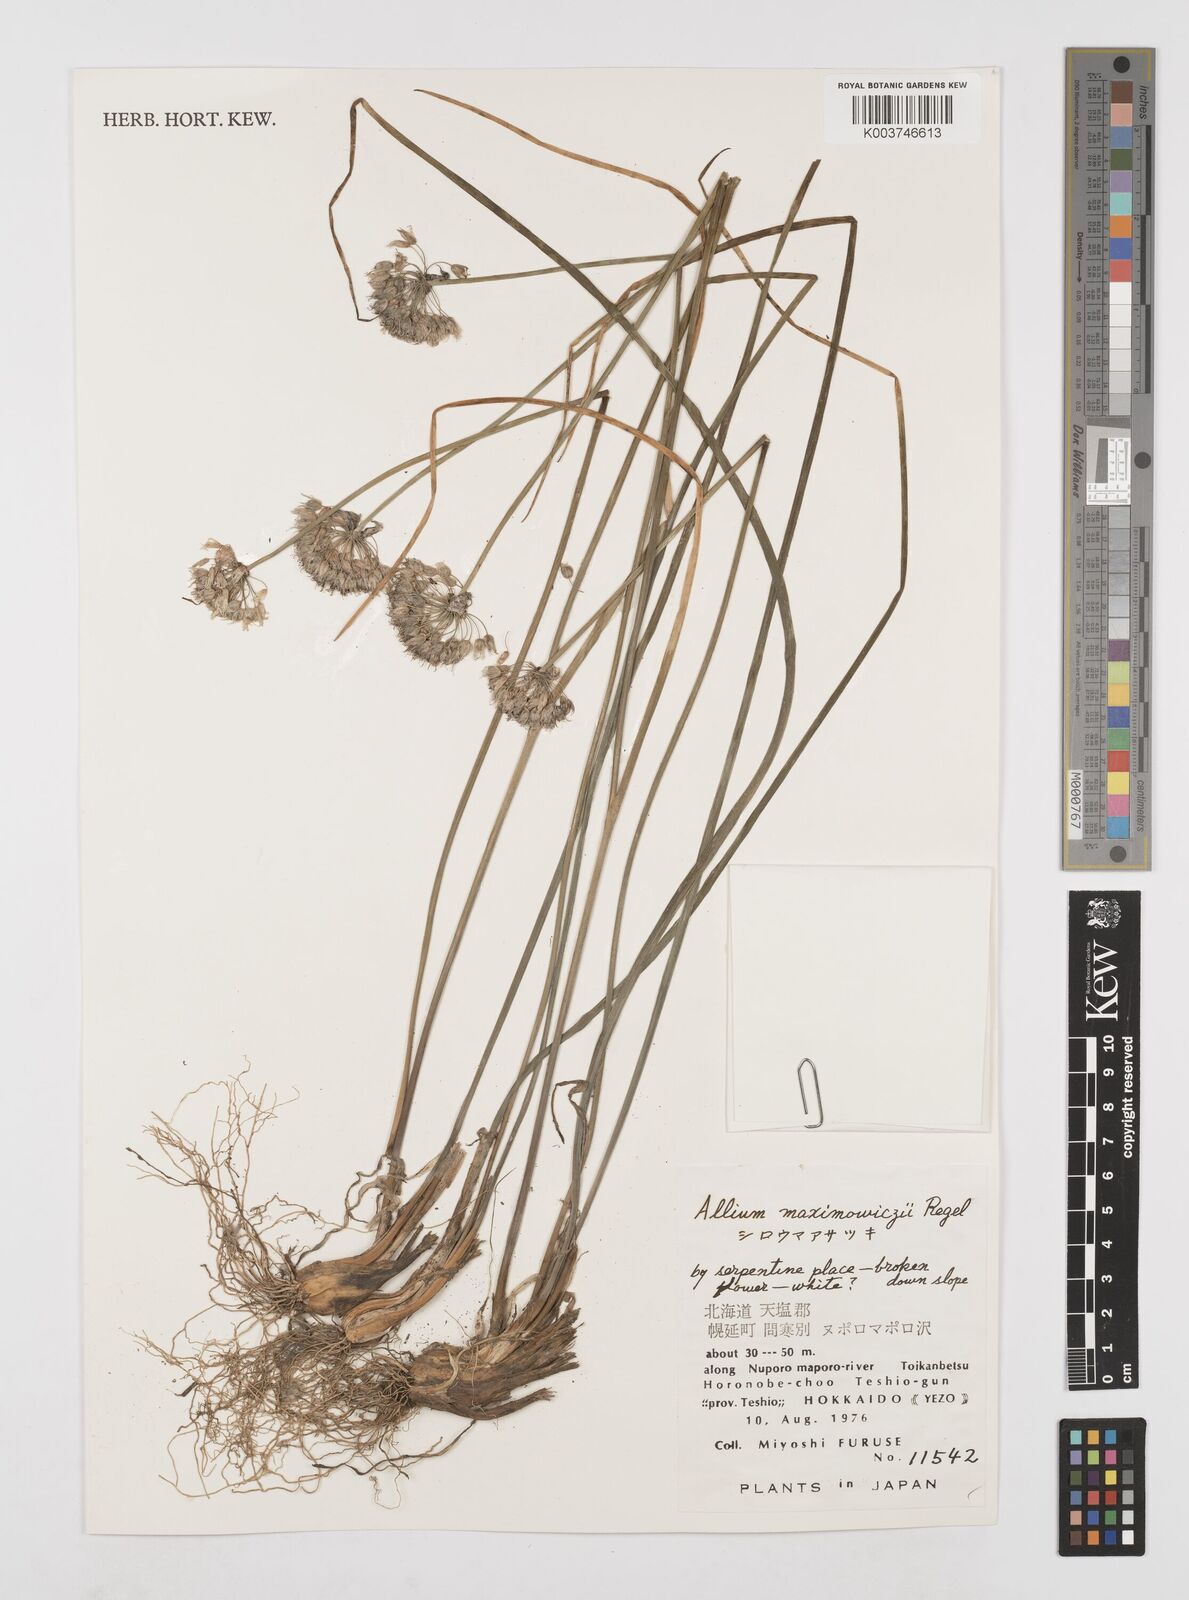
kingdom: Plantae
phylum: Tracheophyta
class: Liliopsida
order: Asparagales
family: Amaryllidaceae
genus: Allium
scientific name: Allium maximowiczii
